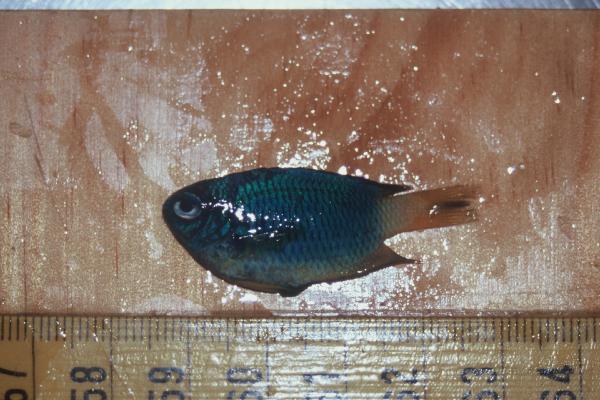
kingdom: Animalia
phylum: Chordata
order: Perciformes
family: Pomacentridae
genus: Pomacentrus
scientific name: Pomacentrus caeruleus
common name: Caerulean damsel
